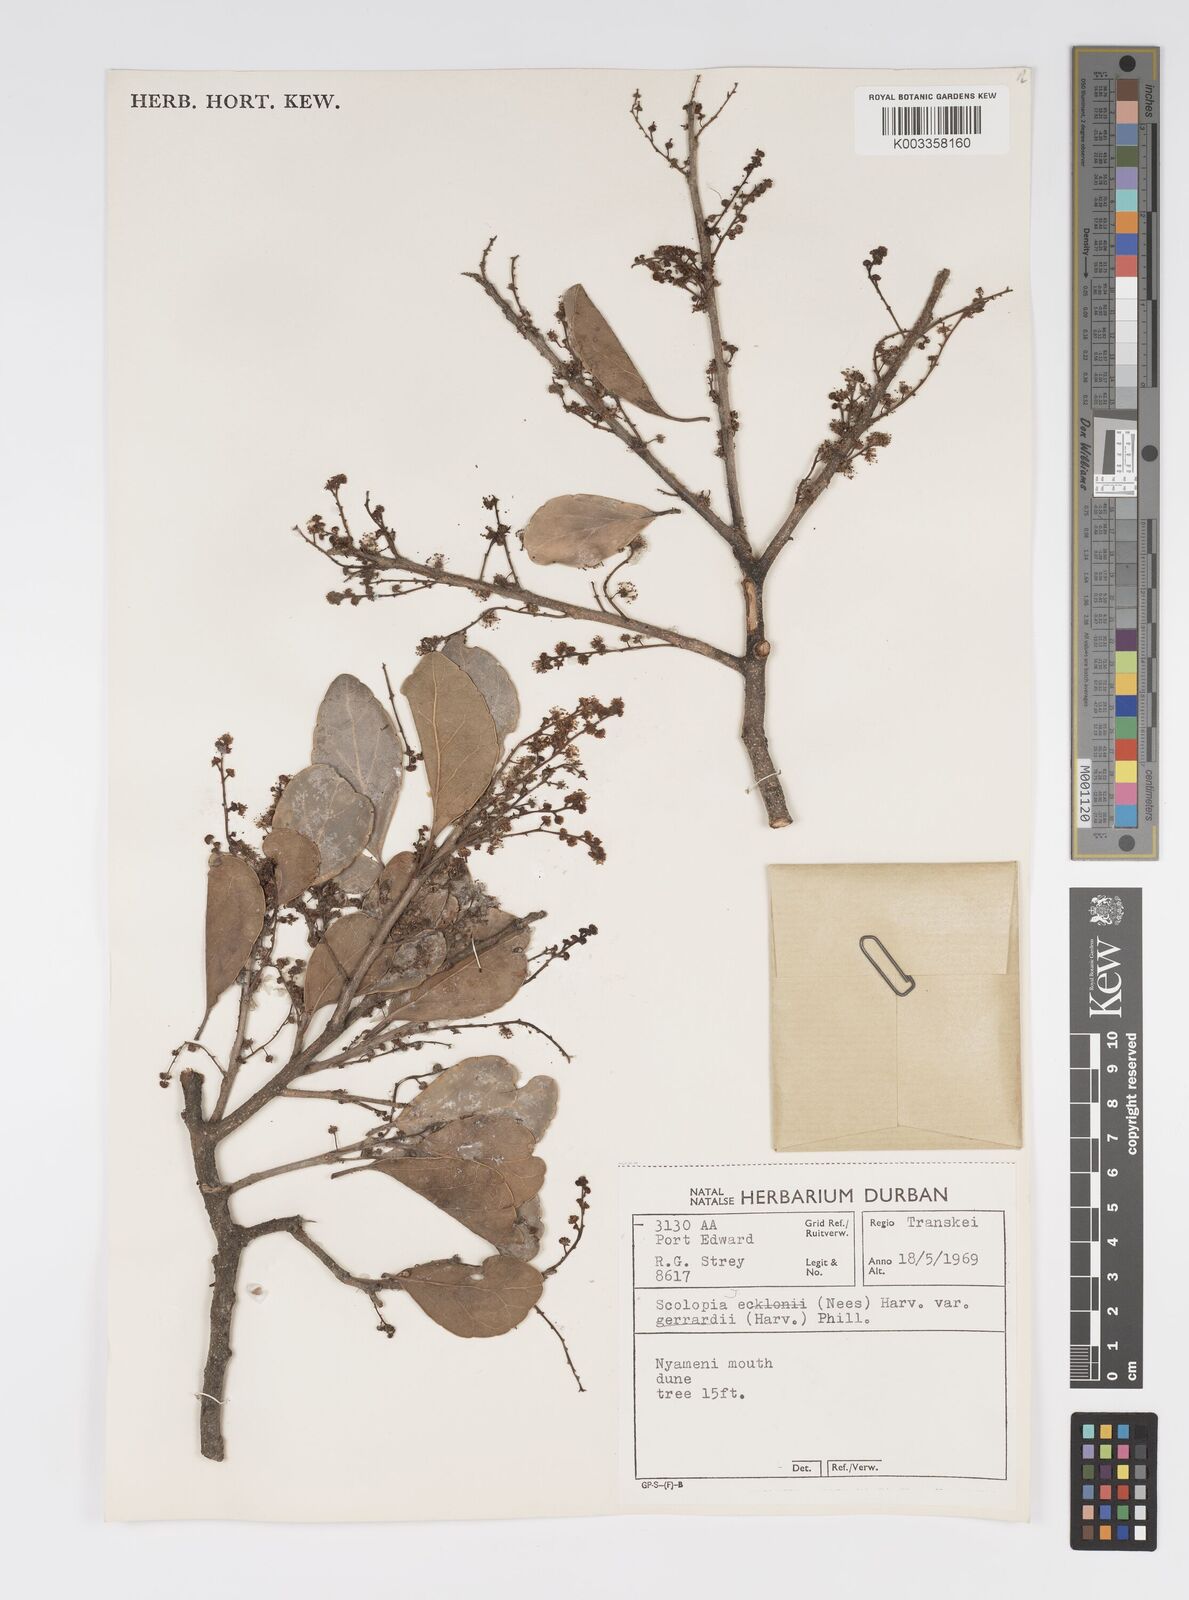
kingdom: Plantae
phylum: Tracheophyta
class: Magnoliopsida
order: Malpighiales
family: Salicaceae
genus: Scolopia
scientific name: Scolopia zeyheri
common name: Thorn pear
